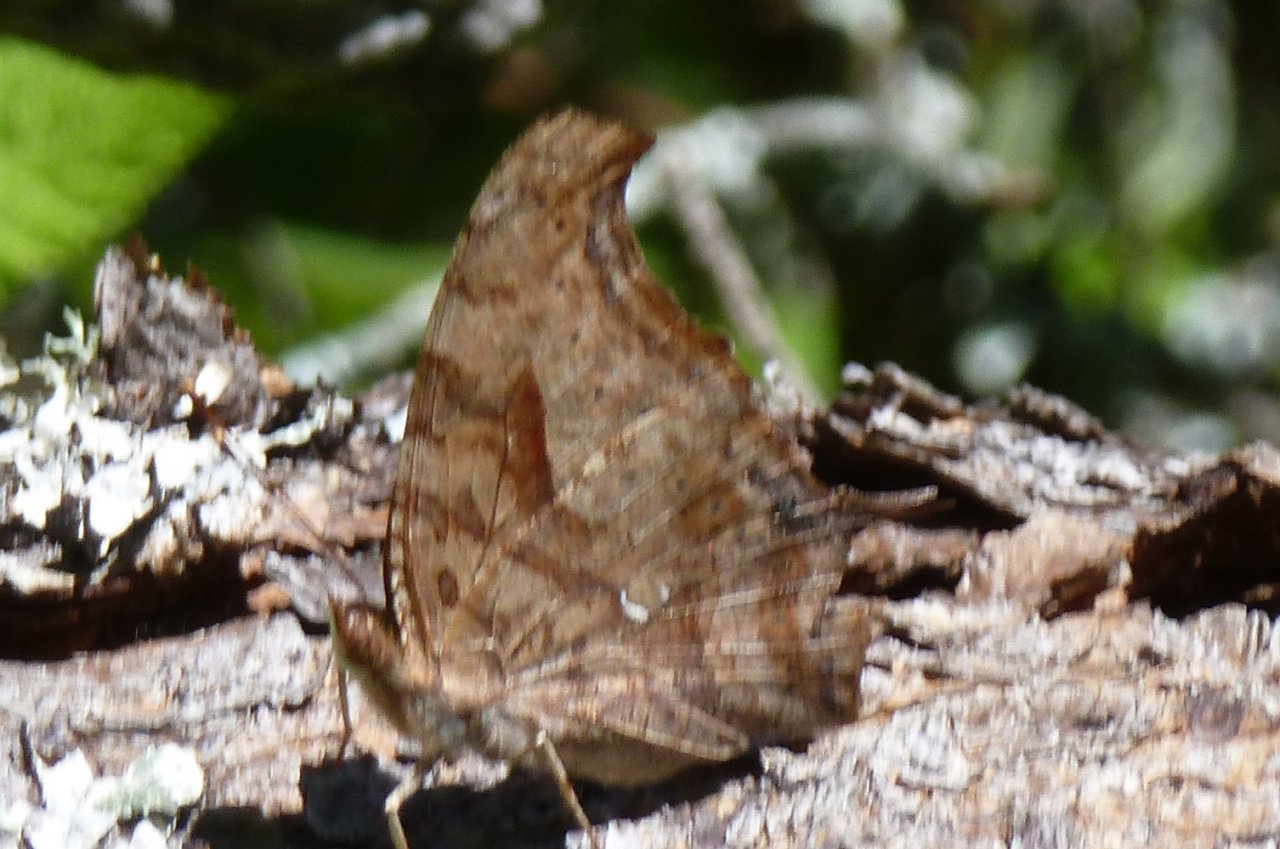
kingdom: Animalia
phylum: Arthropoda
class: Insecta
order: Lepidoptera
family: Nymphalidae
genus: Polygonia
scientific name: Polygonia interrogationis
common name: Question Mark
